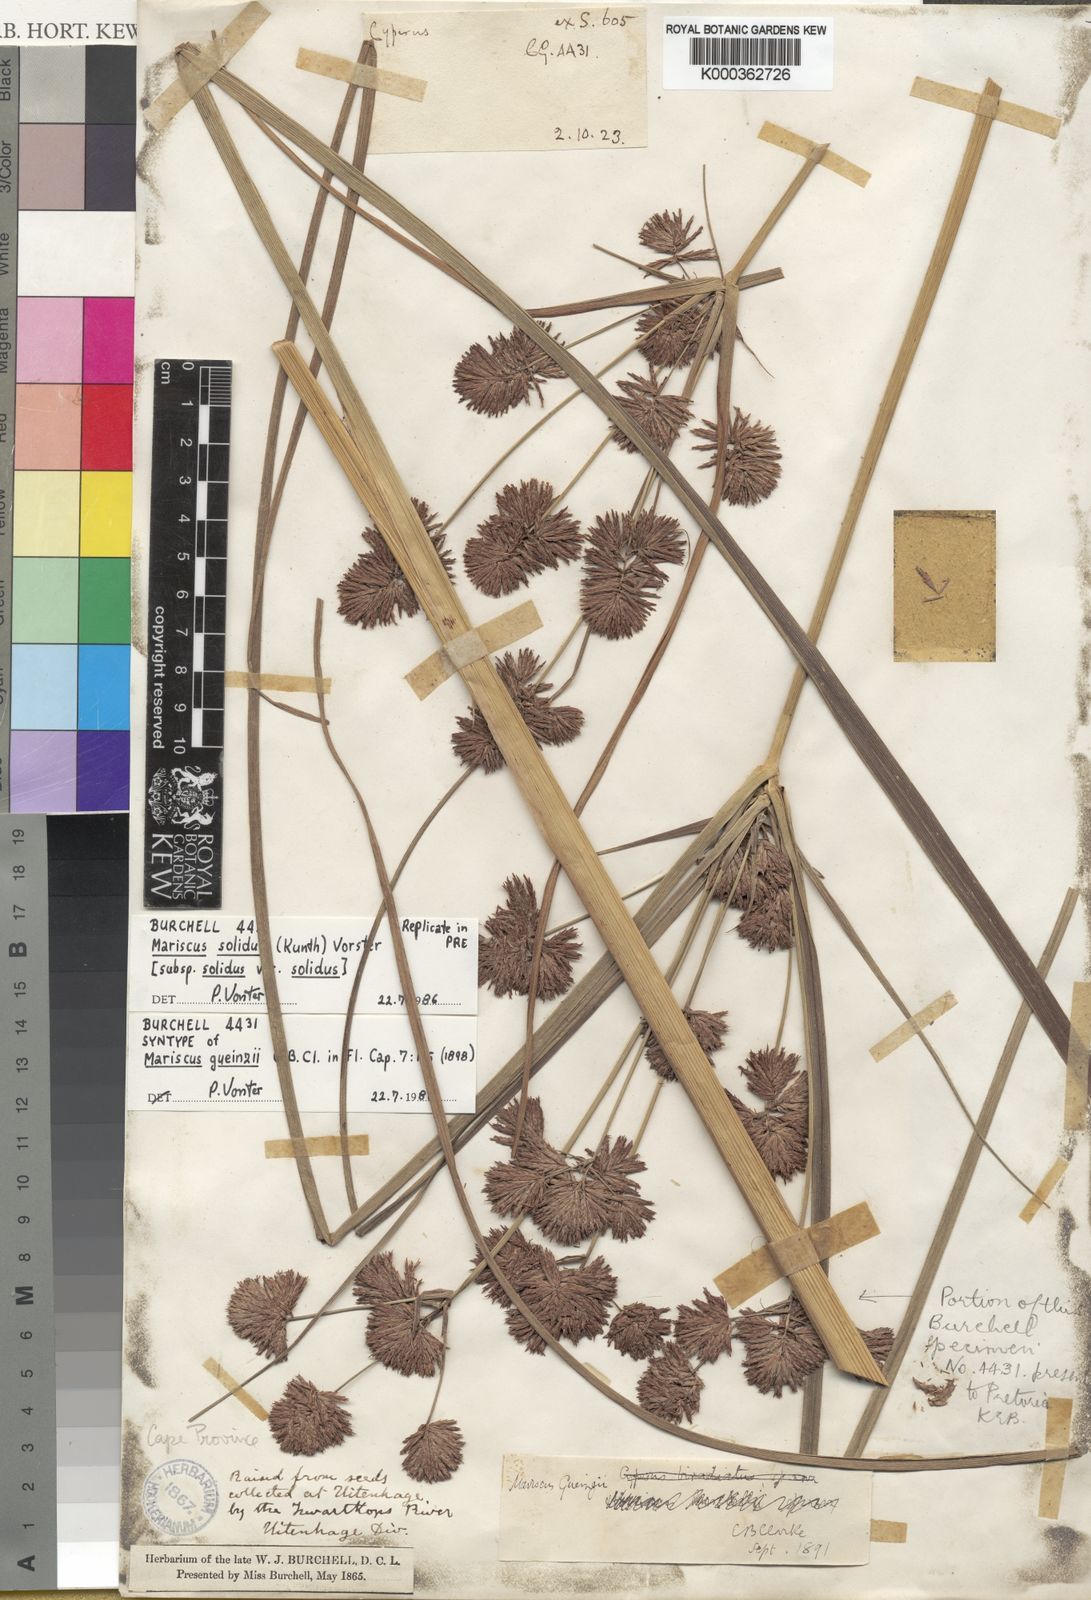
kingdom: Plantae
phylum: Tracheophyta
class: Liliopsida
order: Poales
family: Cyperaceae
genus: Cyperus
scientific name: Cyperus solidus
